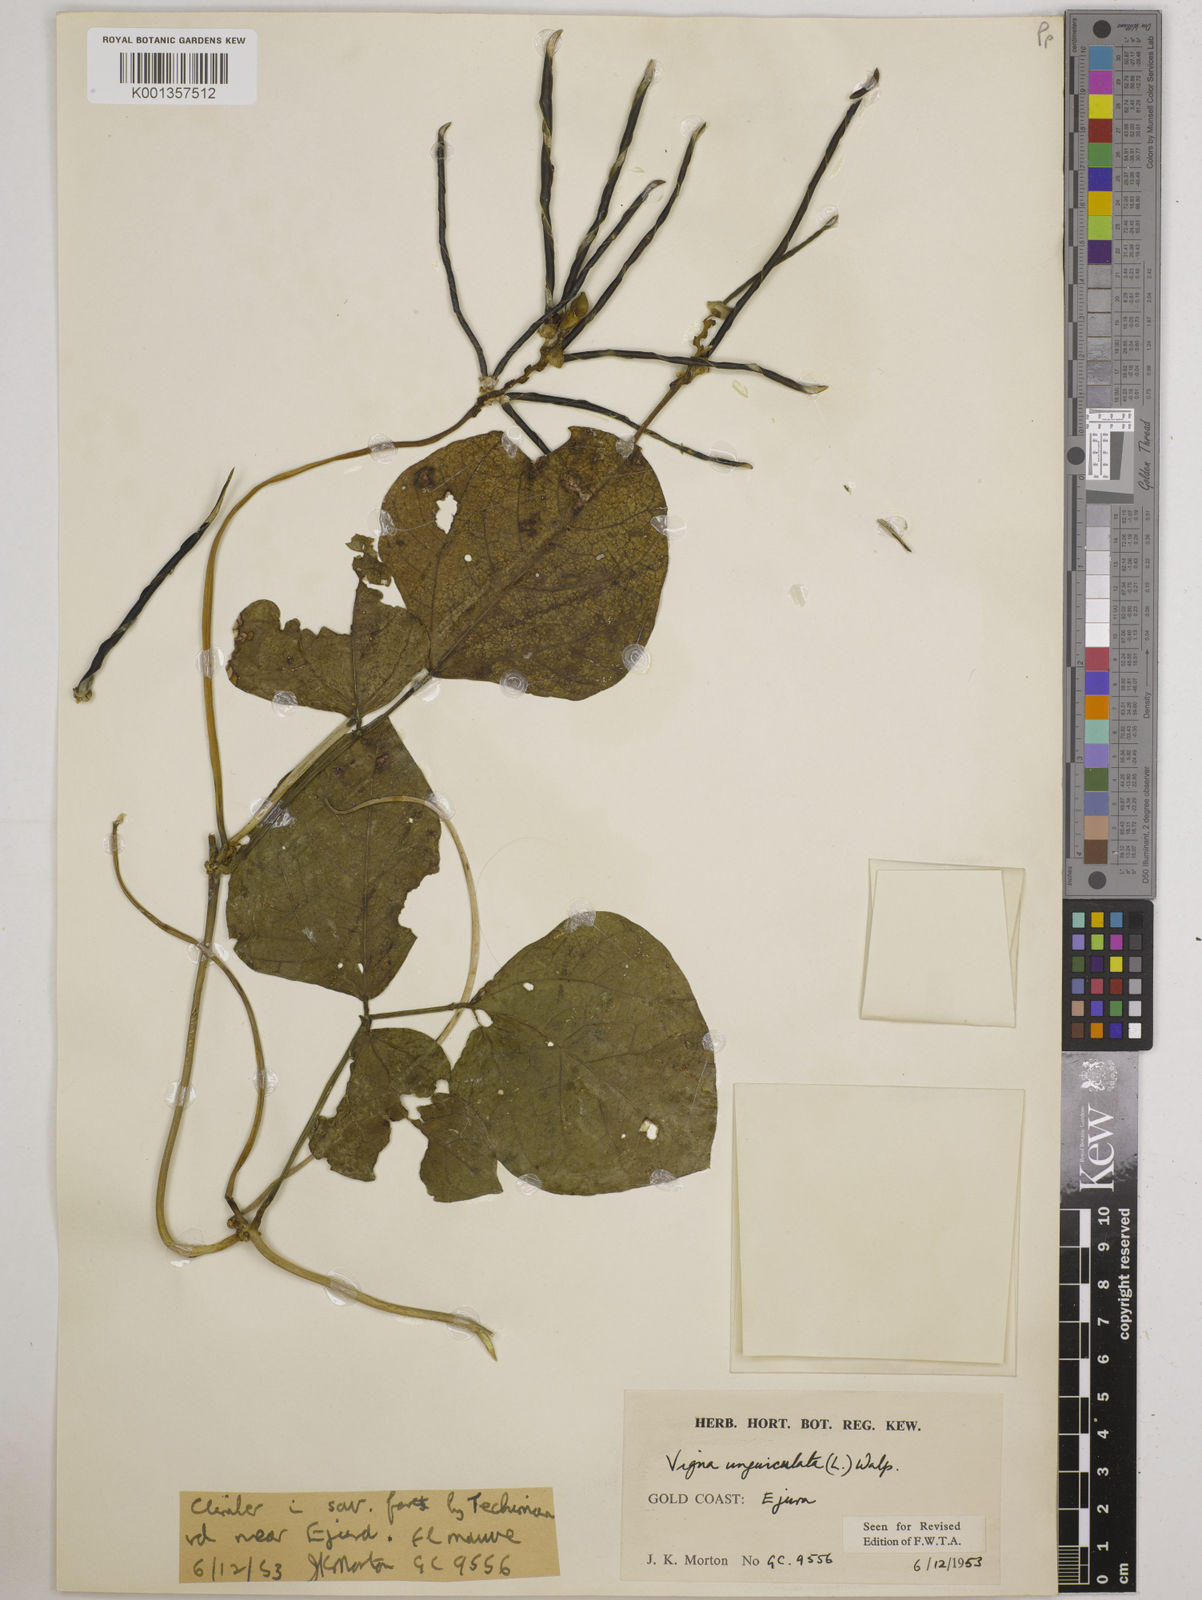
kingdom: Plantae
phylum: Tracheophyta
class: Magnoliopsida
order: Fabales
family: Fabaceae
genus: Vigna
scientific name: Vigna
